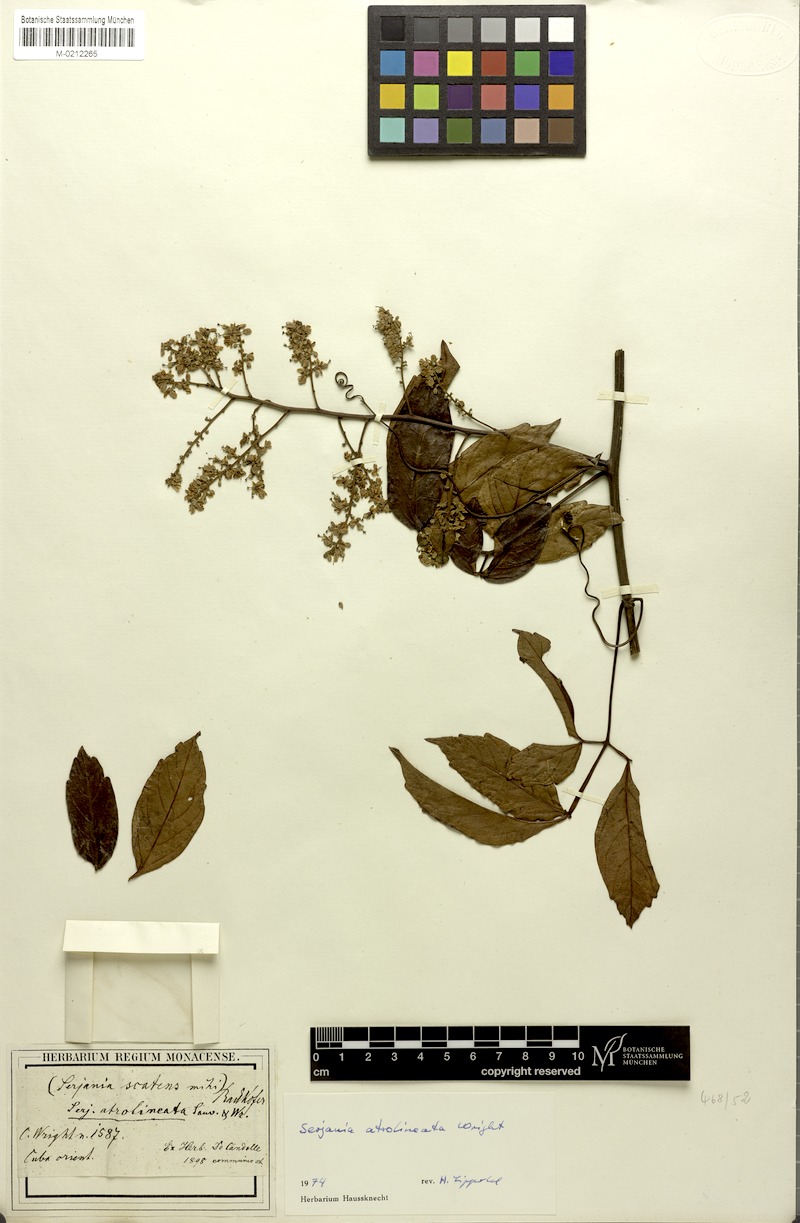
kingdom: Plantae
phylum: Tracheophyta
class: Magnoliopsida
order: Sapindales
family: Sapindaceae
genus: Serjania
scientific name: Serjania atrolineata
